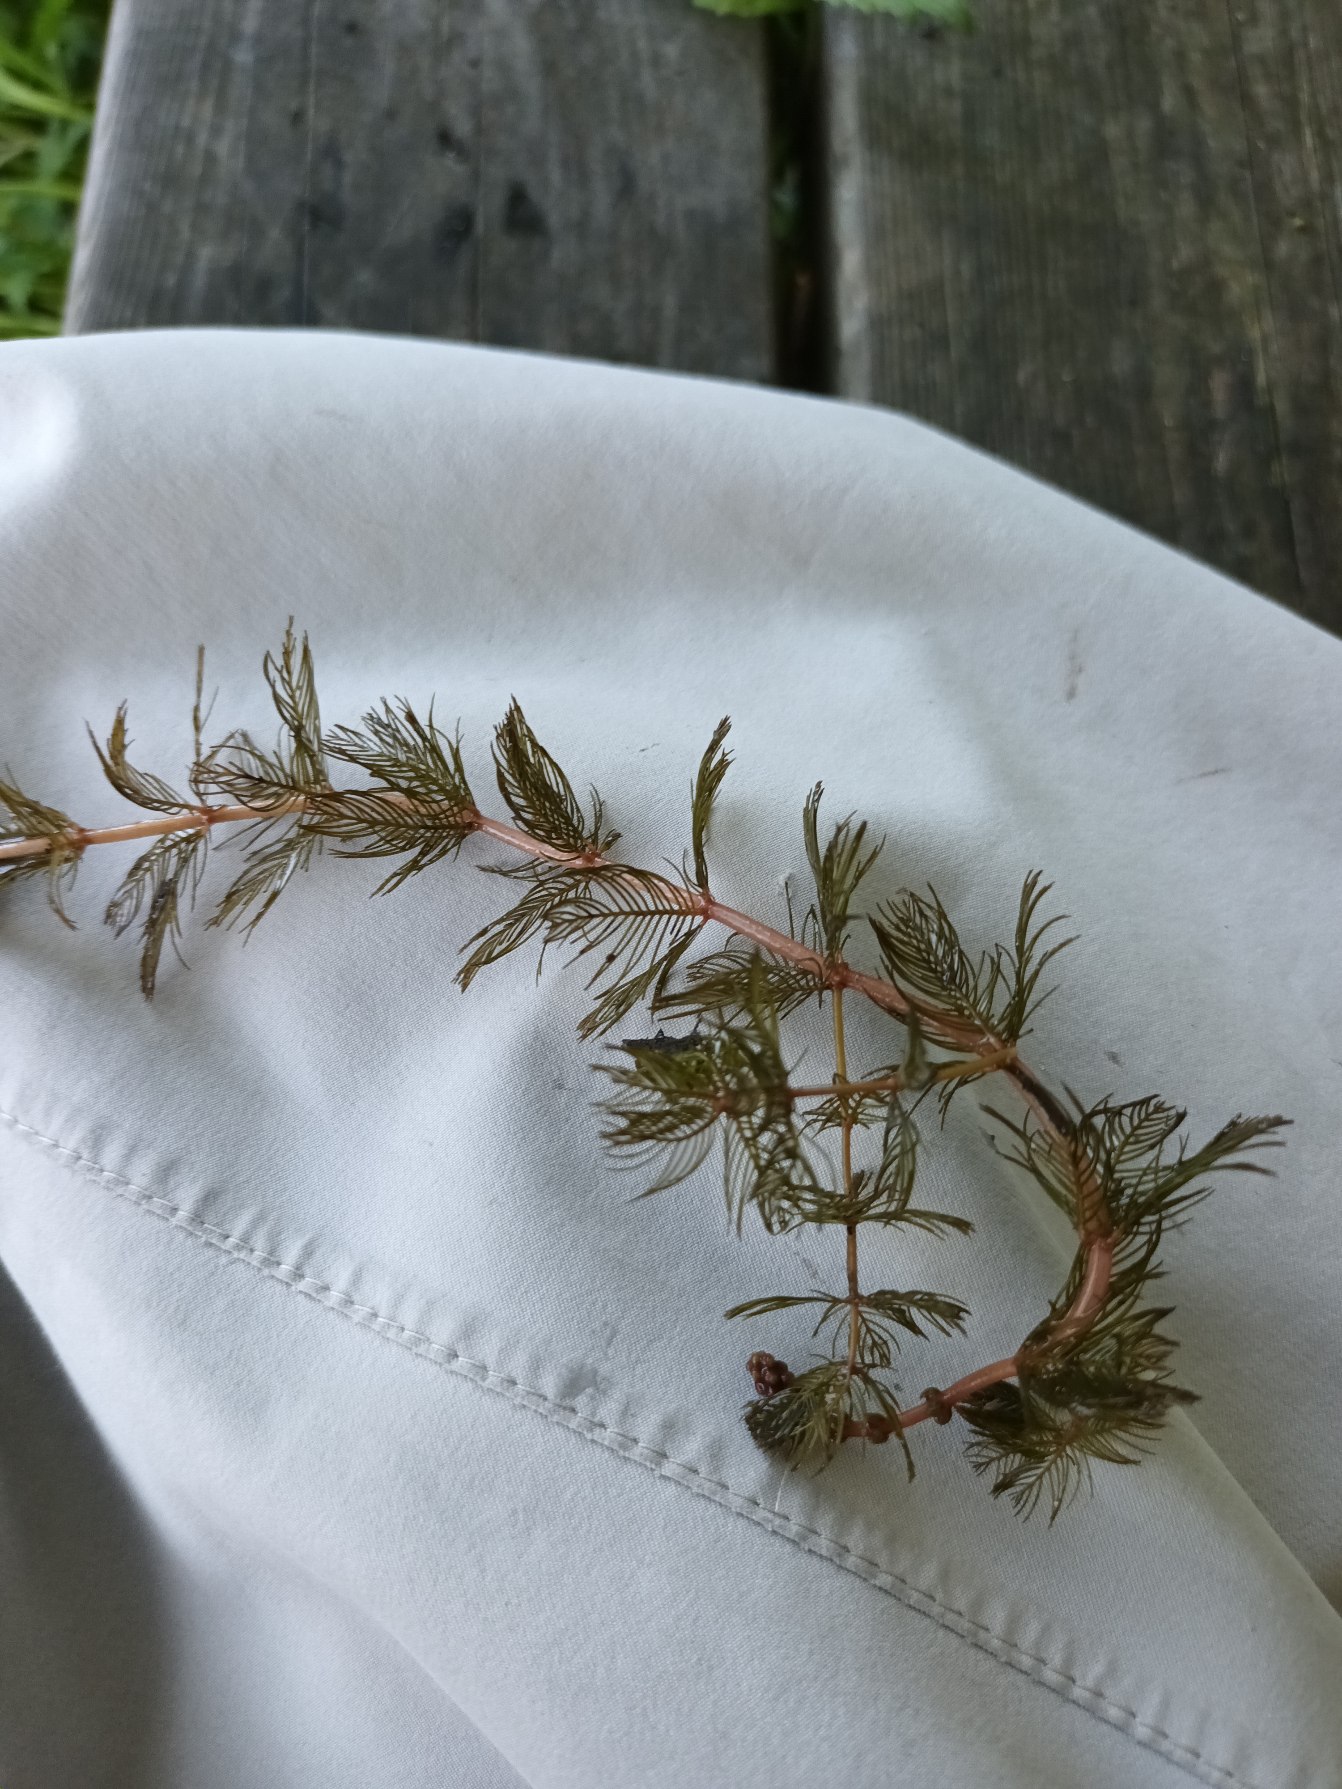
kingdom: Plantae
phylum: Tracheophyta
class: Magnoliopsida
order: Saxifragales
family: Haloragaceae
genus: Myriophyllum
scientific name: Myriophyllum spicatum
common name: Aks-tusindblad
